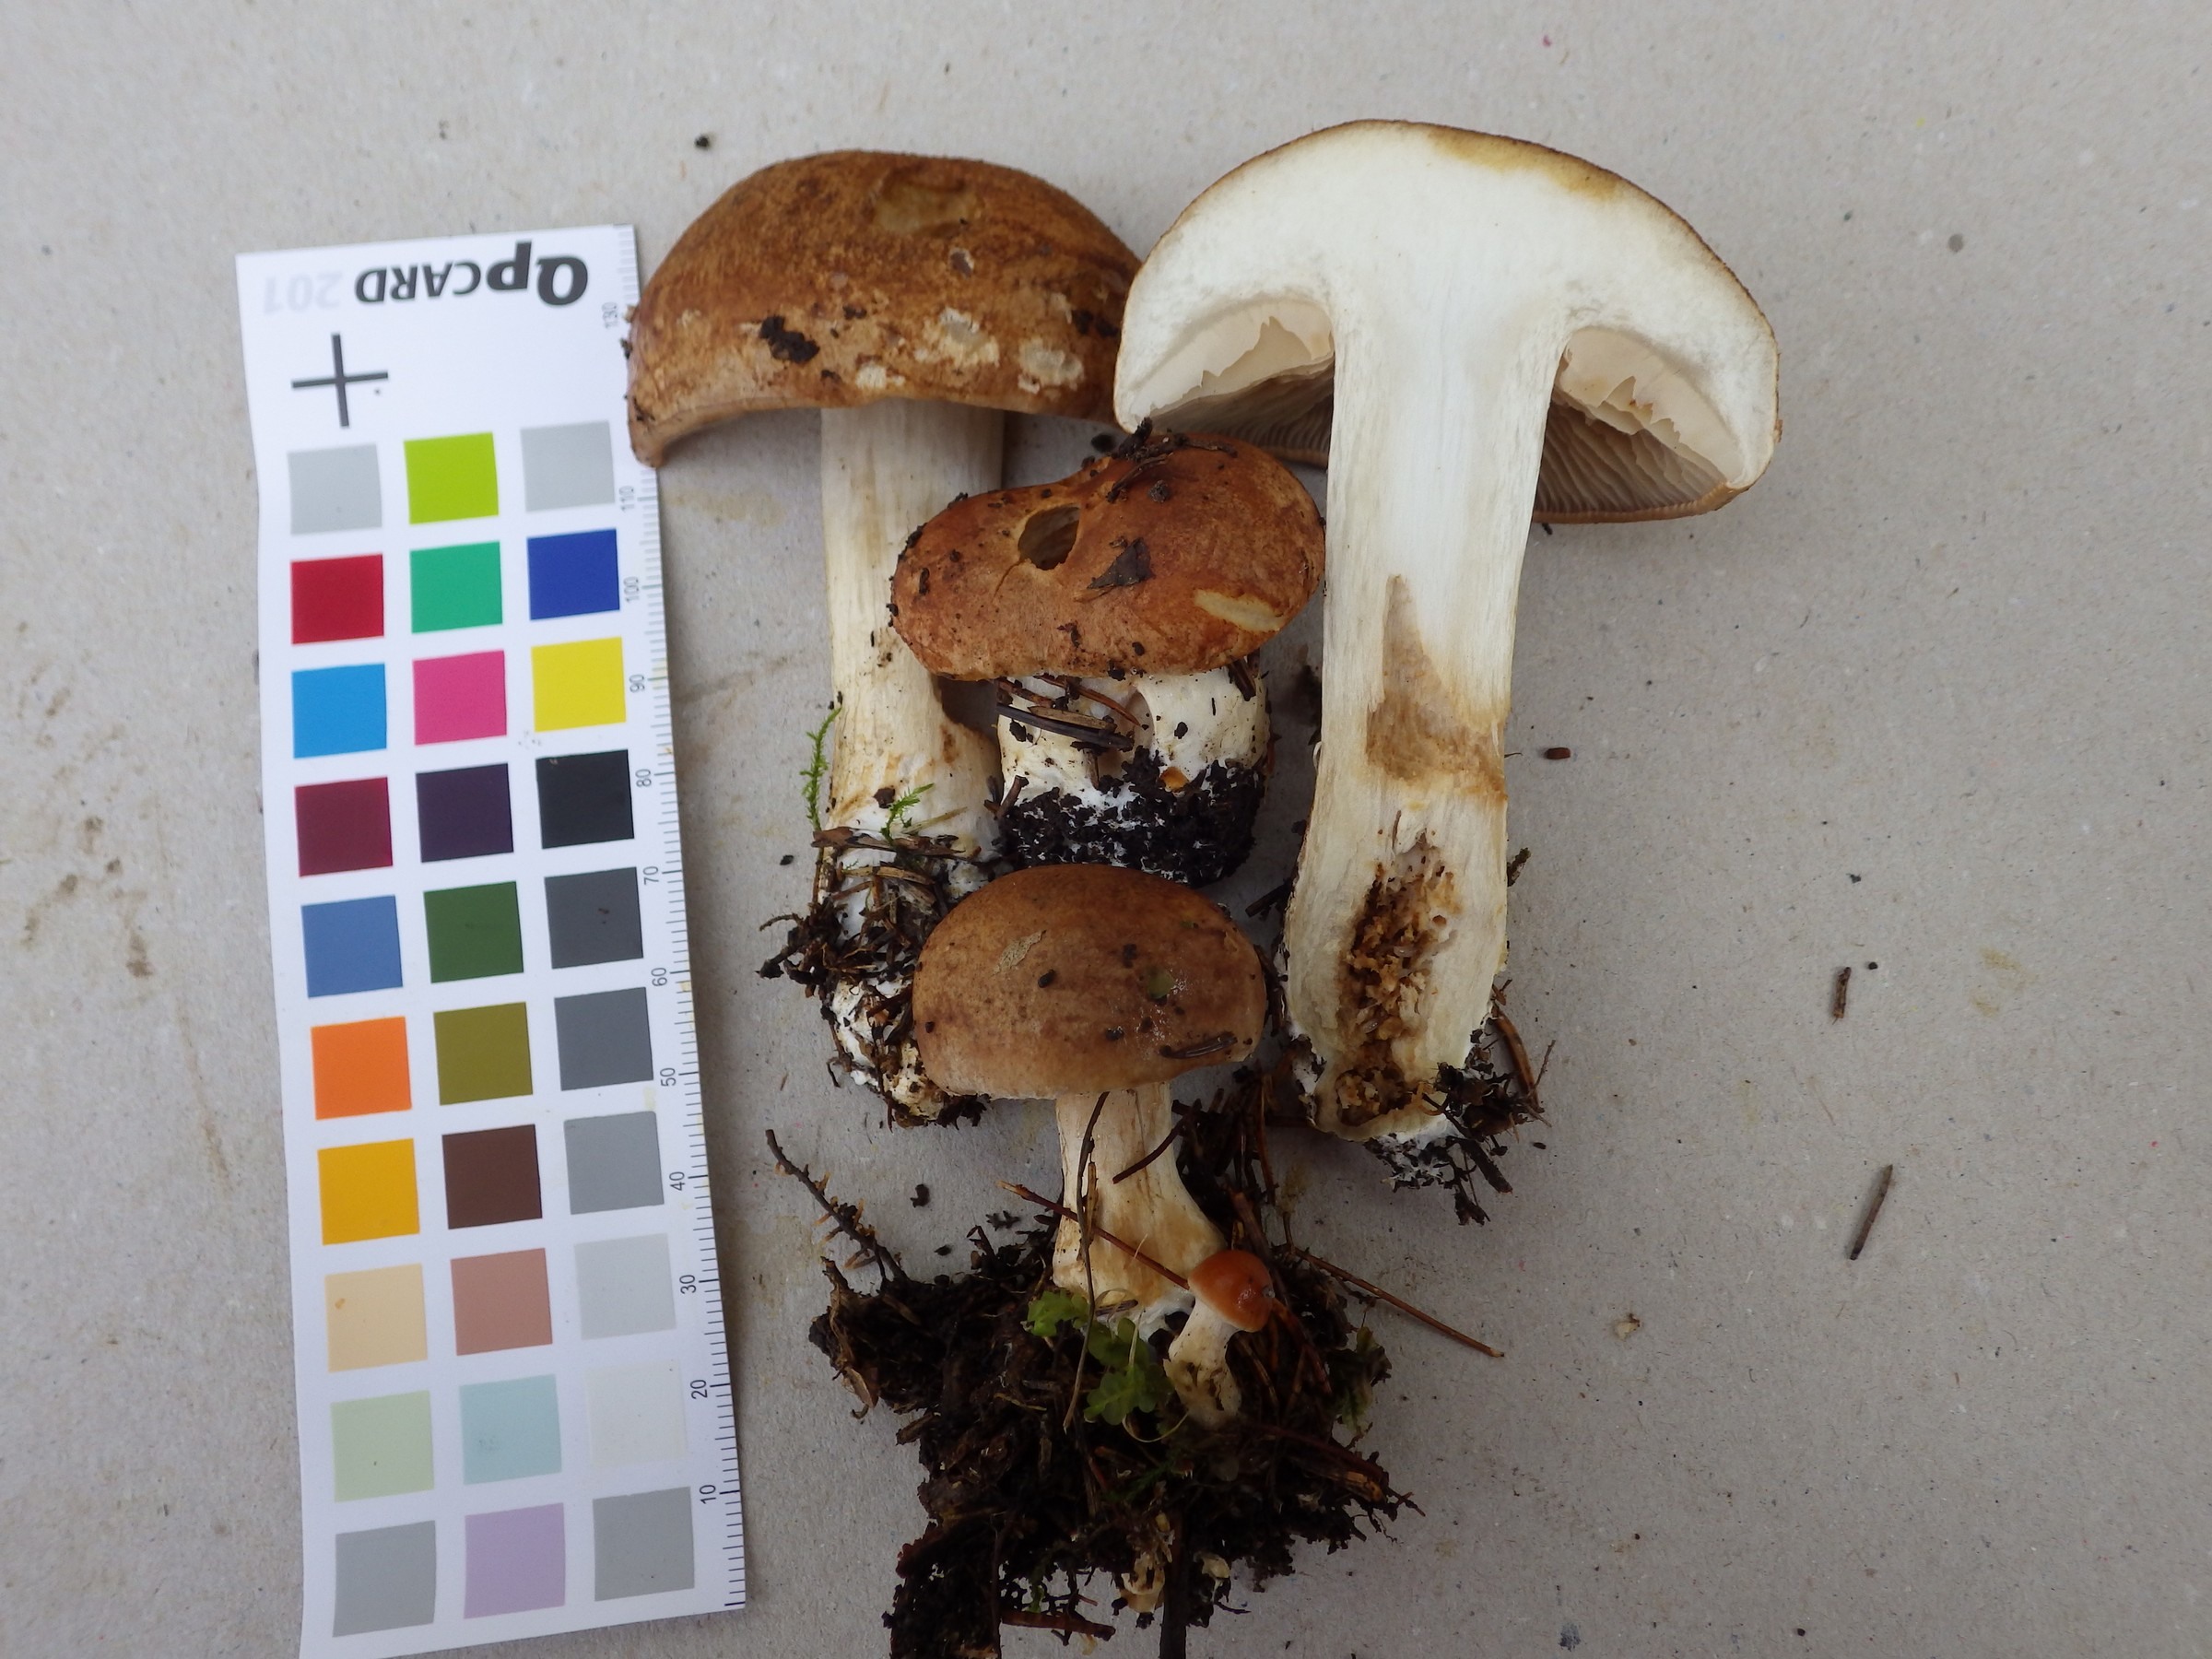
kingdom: Fungi
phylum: Basidiomycota
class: Agaricomycetes
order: Agaricales
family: Cortinariaceae
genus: Cystinarius
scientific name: Cystinarius crassus
